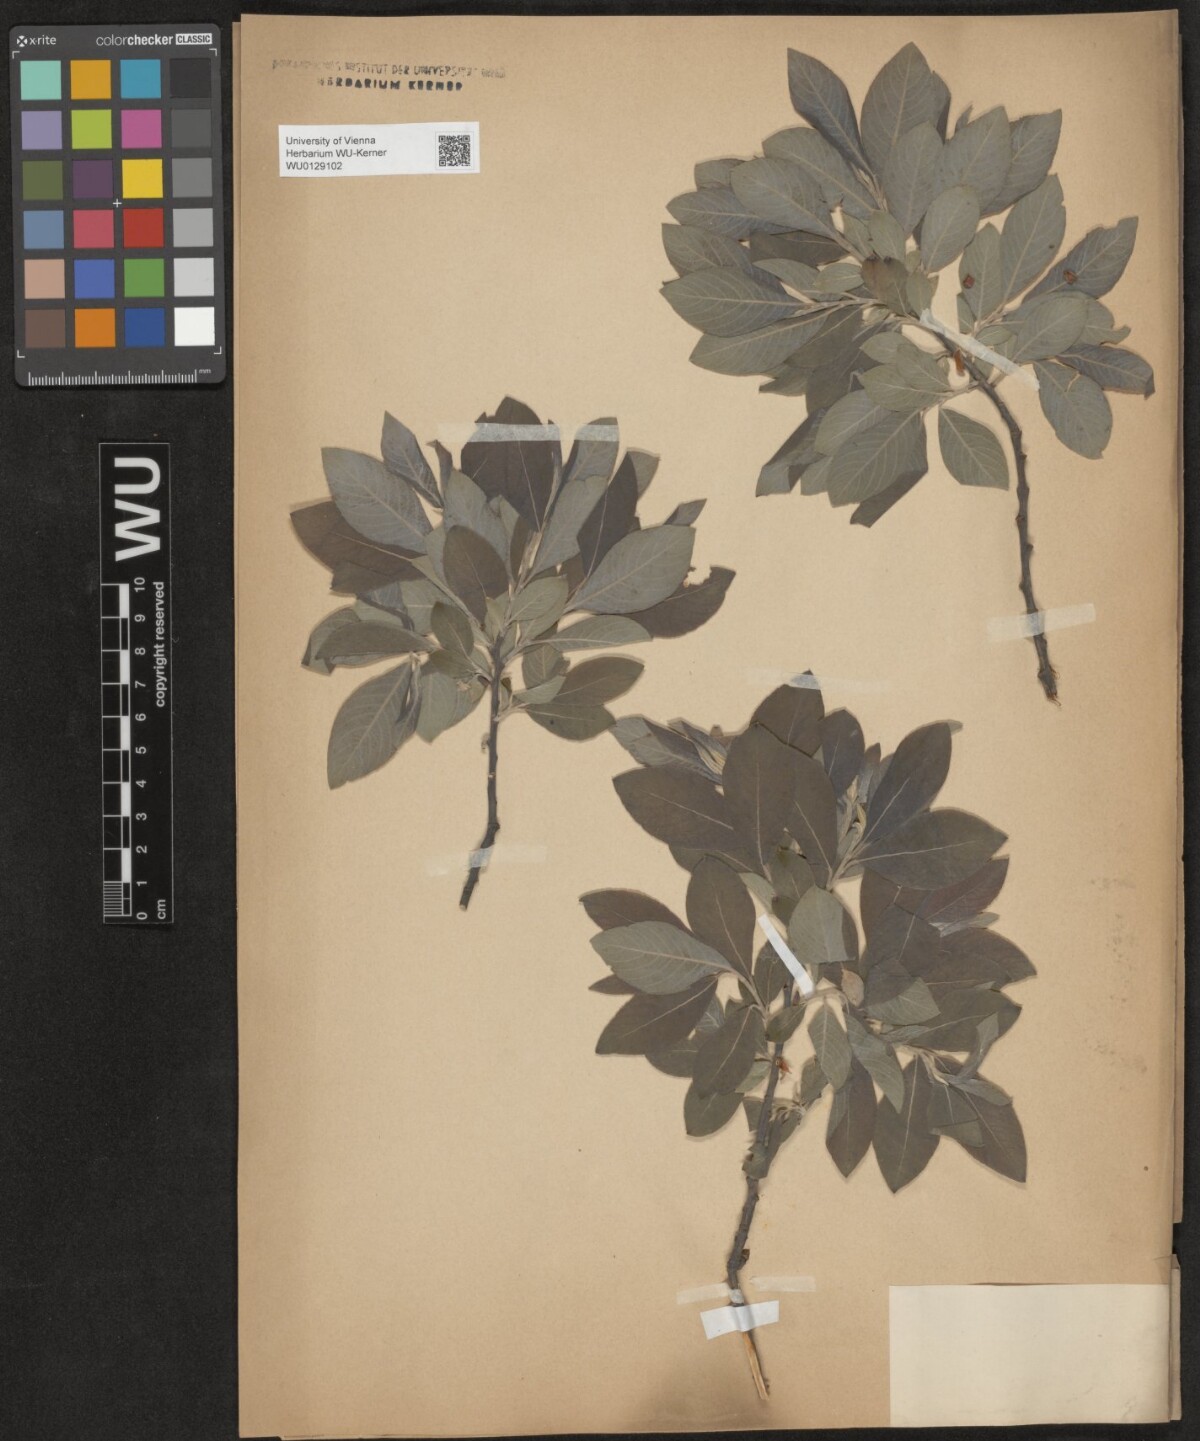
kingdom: Plantae
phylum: Tracheophyta
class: Magnoliopsida
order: Malpighiales
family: Salicaceae
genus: Salix
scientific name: Salix cinerea
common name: Common sallow
